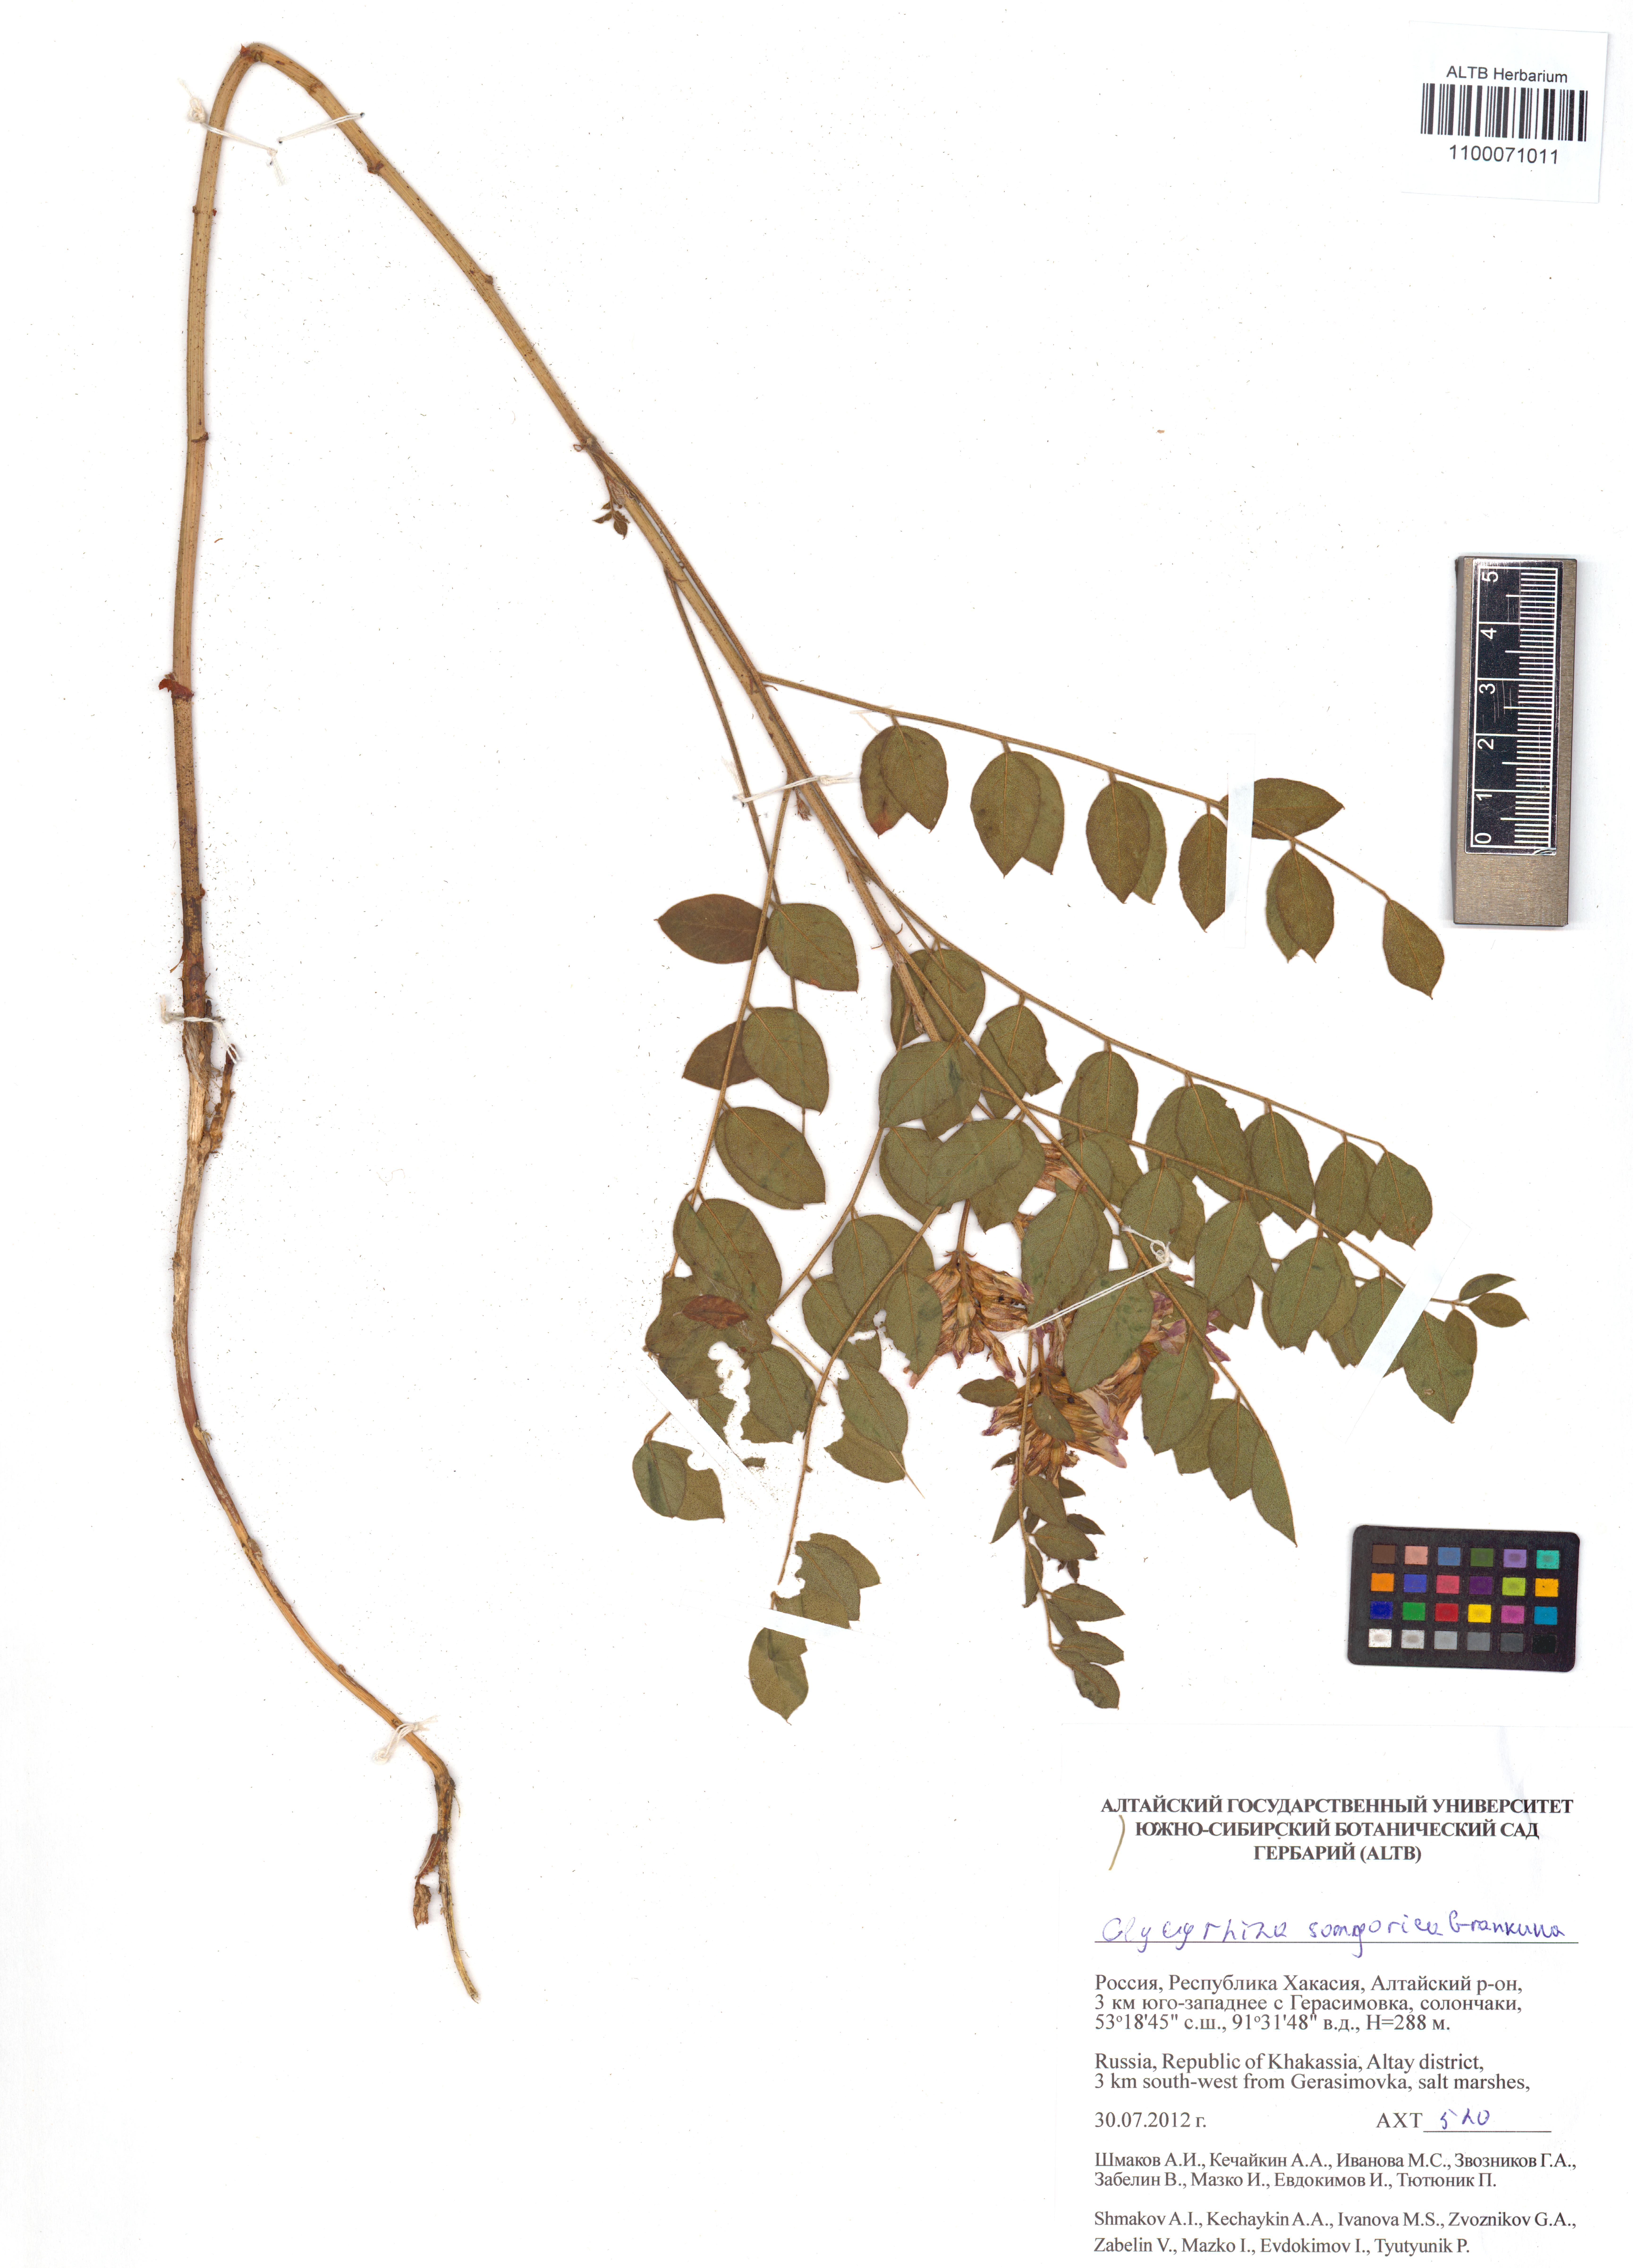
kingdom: Plantae
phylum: Tracheophyta
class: Magnoliopsida
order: Fabales
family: Fabaceae
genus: Glycyrrhiza
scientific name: Glycyrrhiza uralensis
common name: Chinese licorice
